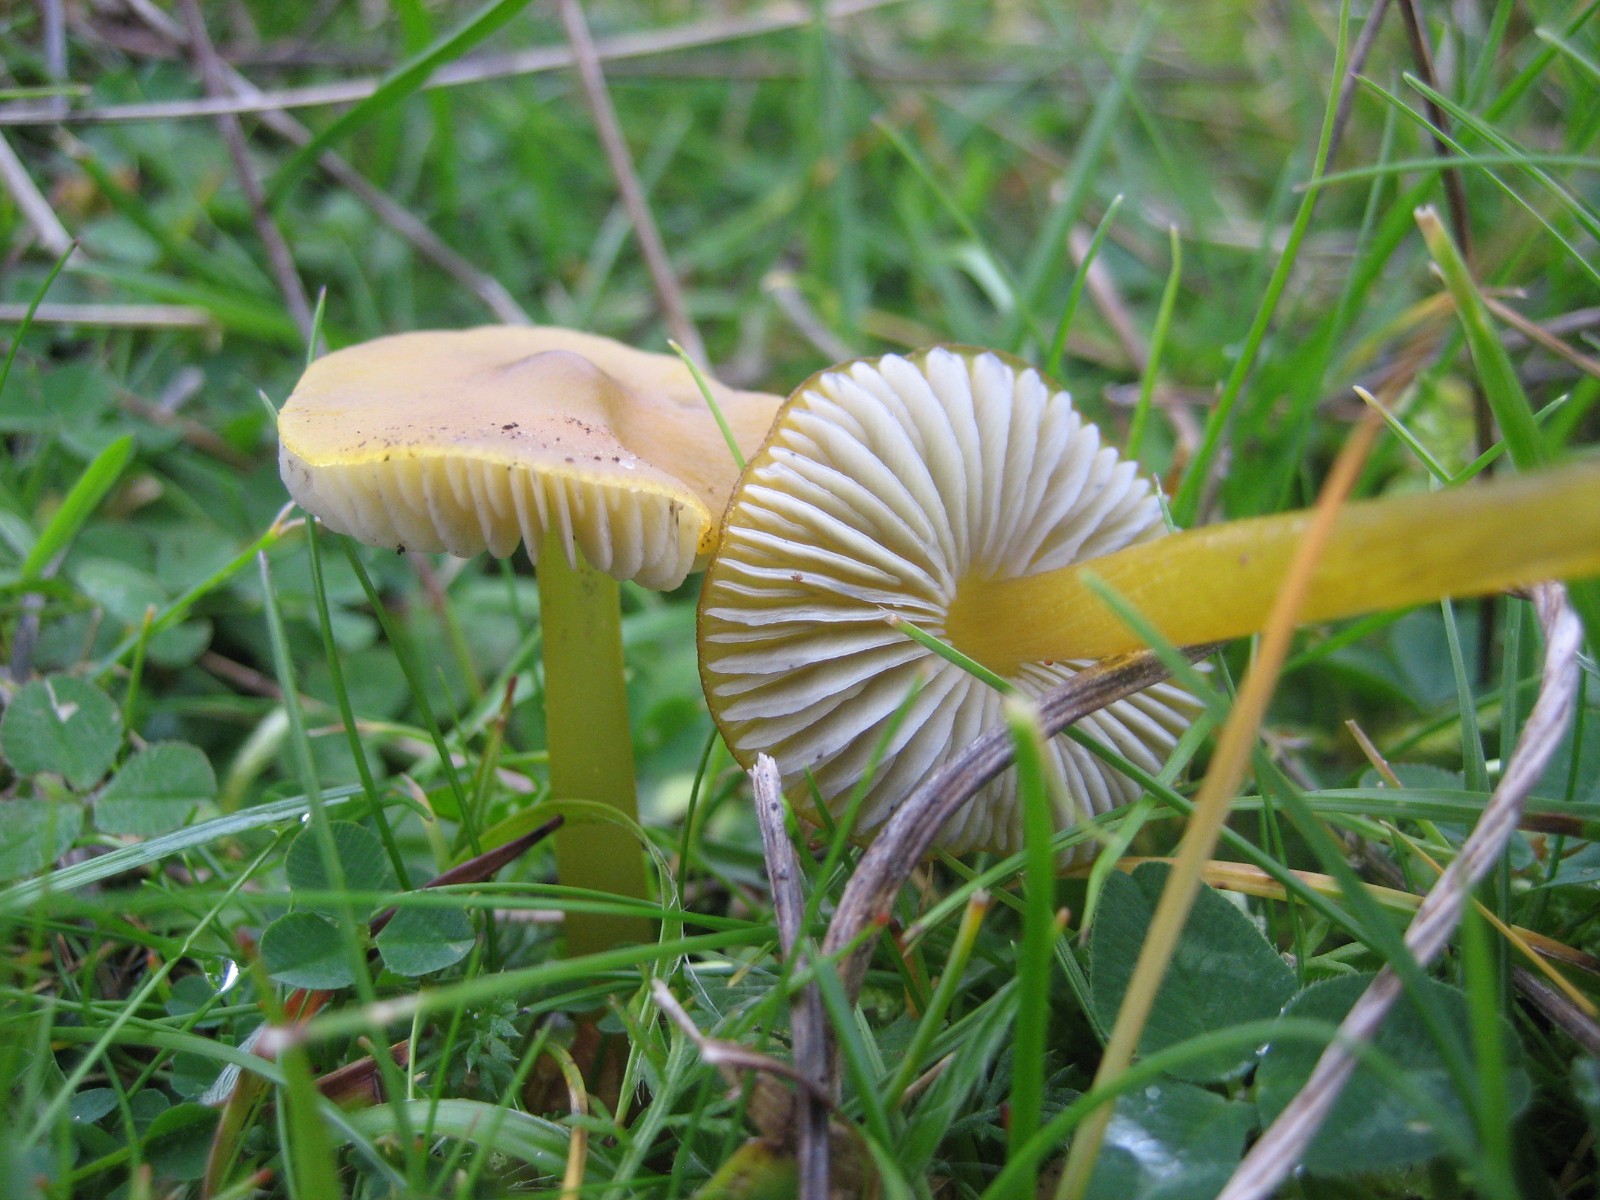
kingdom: Fungi
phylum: Basidiomycota
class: Agaricomycetes
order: Agaricales
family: Hygrophoraceae
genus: Hygrocybe
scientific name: Hygrocybe conica
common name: kegle-vokshat
